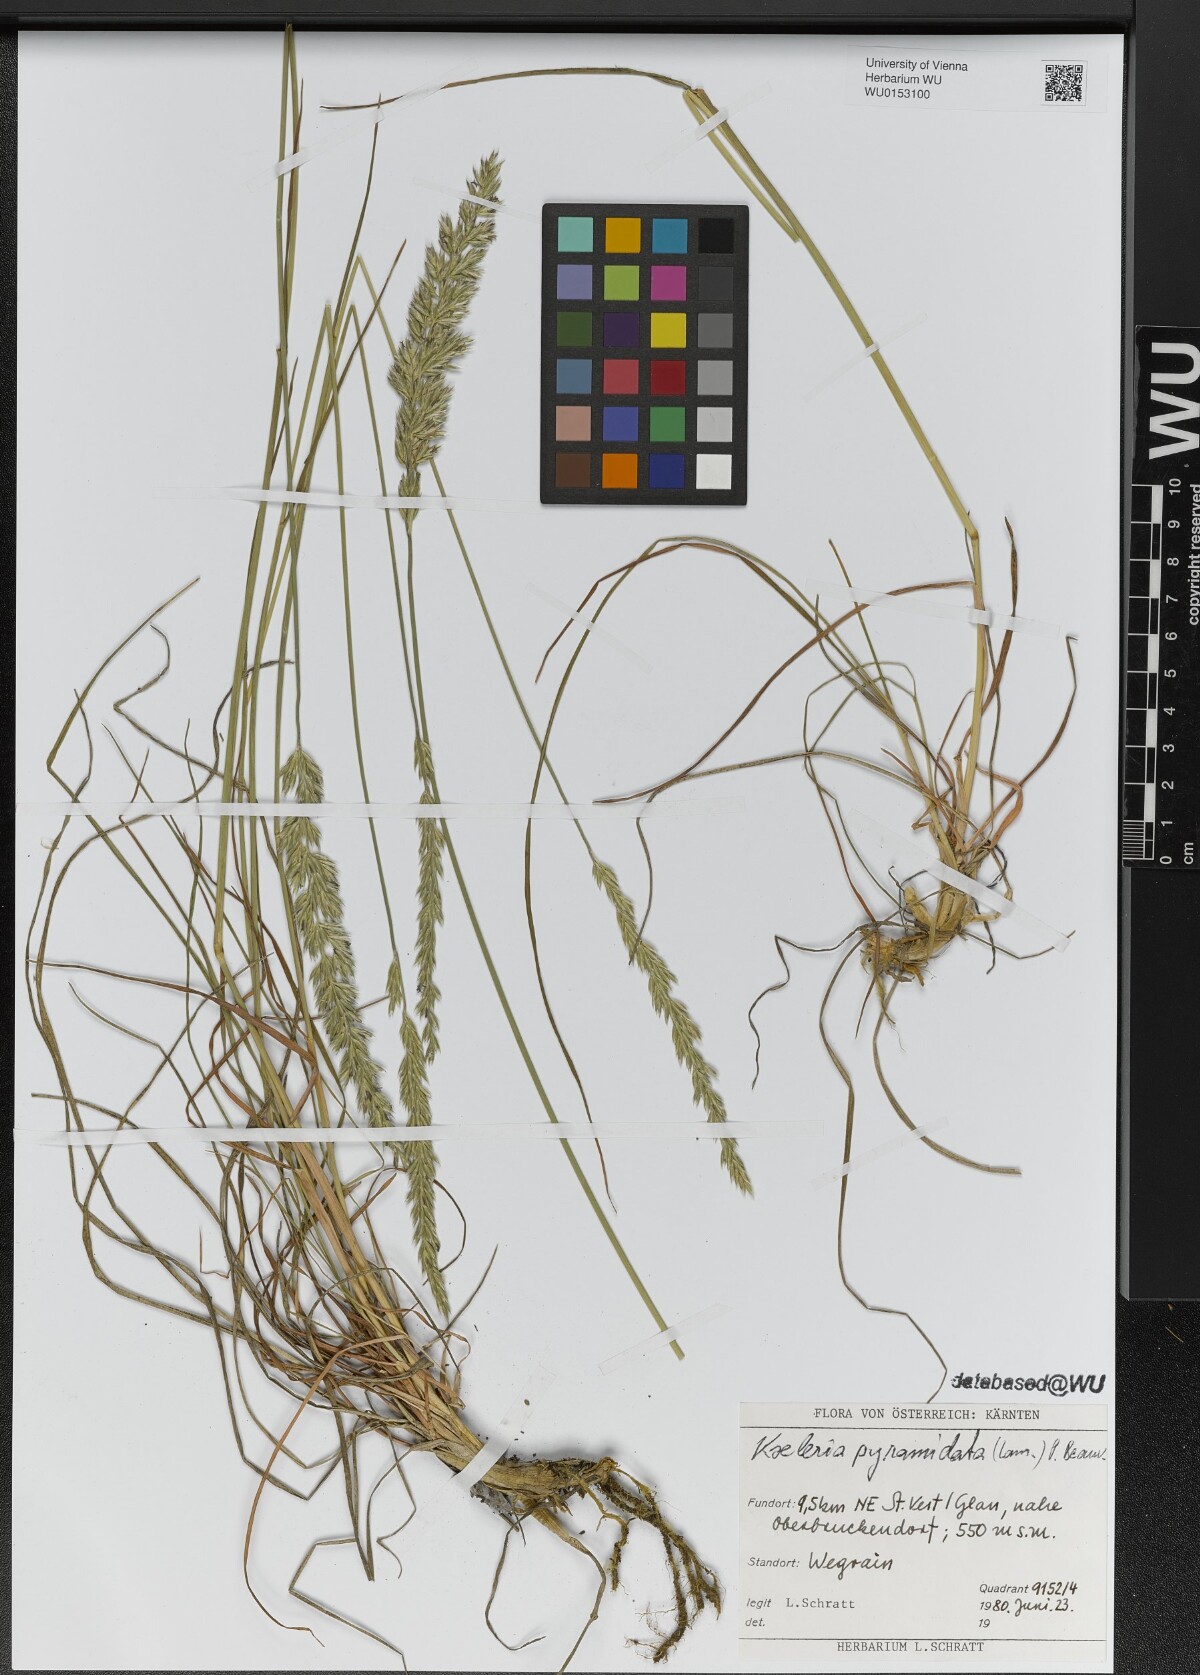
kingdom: Plantae
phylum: Tracheophyta
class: Liliopsida
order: Poales
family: Poaceae
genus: Koeleria
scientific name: Koeleria pyramidata
